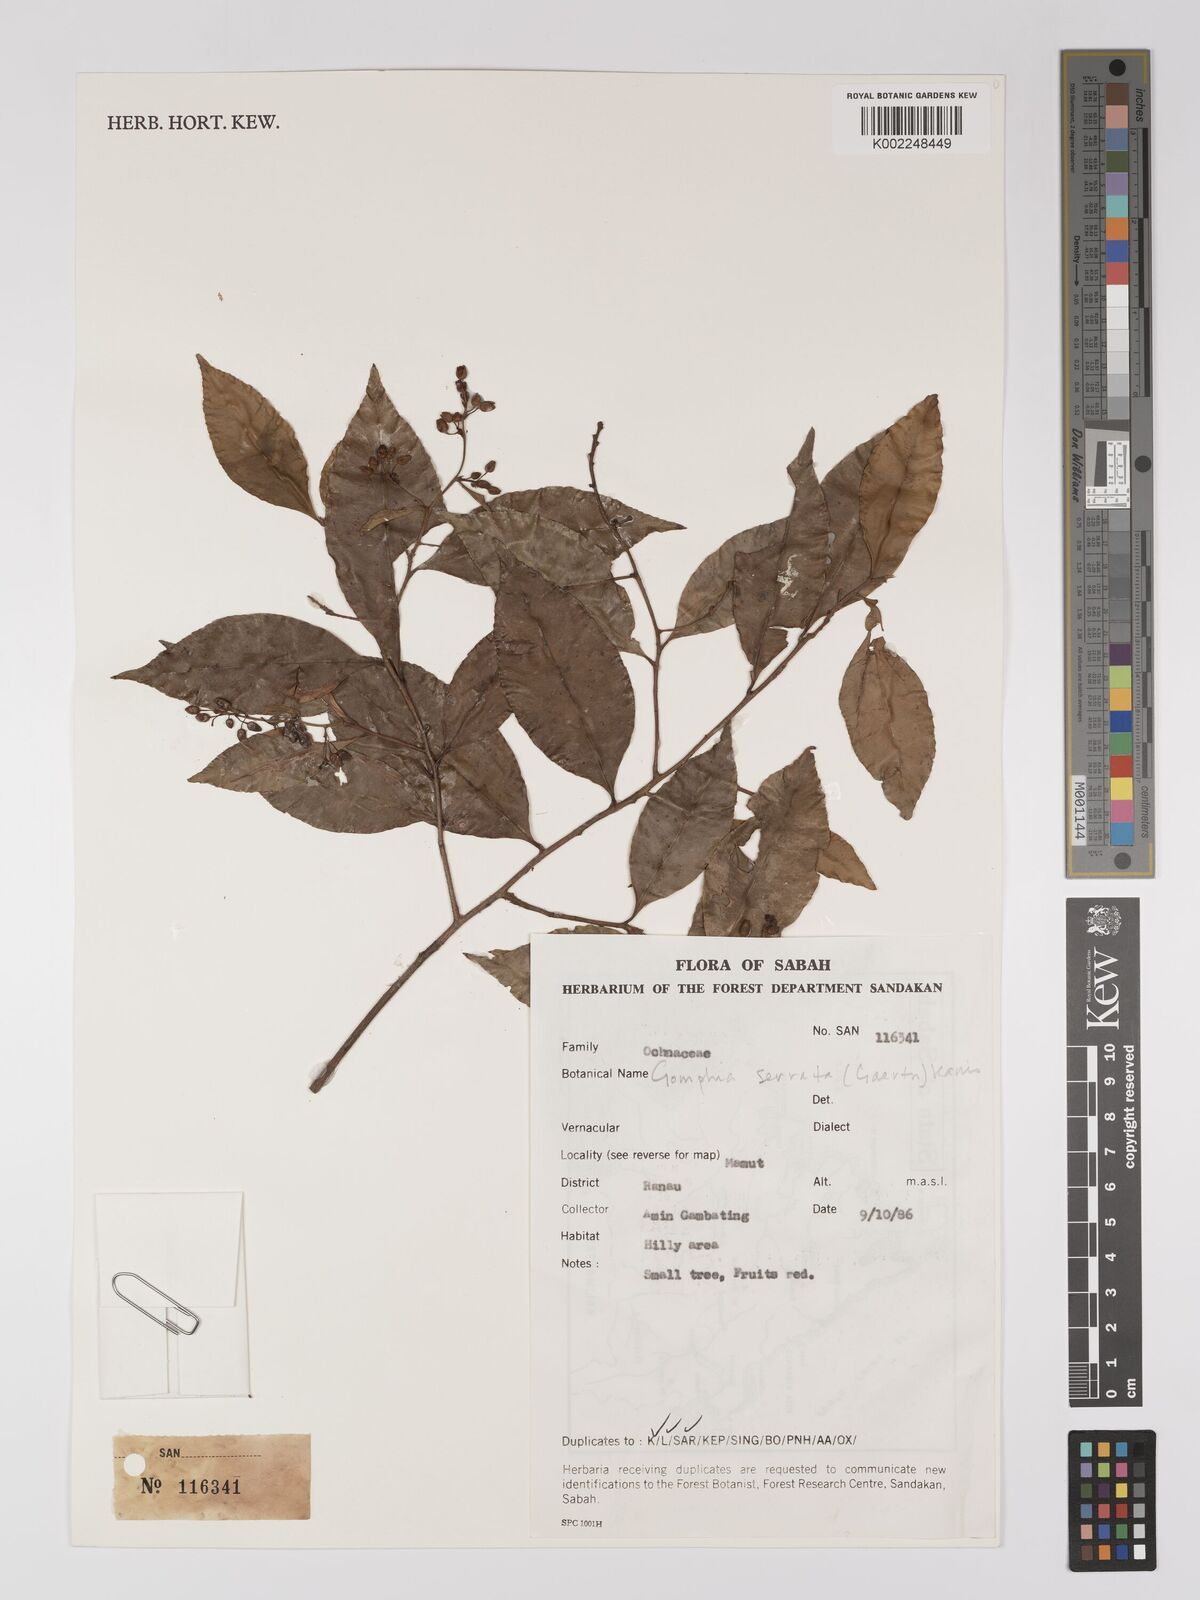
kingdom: Plantae
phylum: Tracheophyta
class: Magnoliopsida
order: Malpighiales
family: Ochnaceae
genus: Gomphia
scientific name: Gomphia serrata
